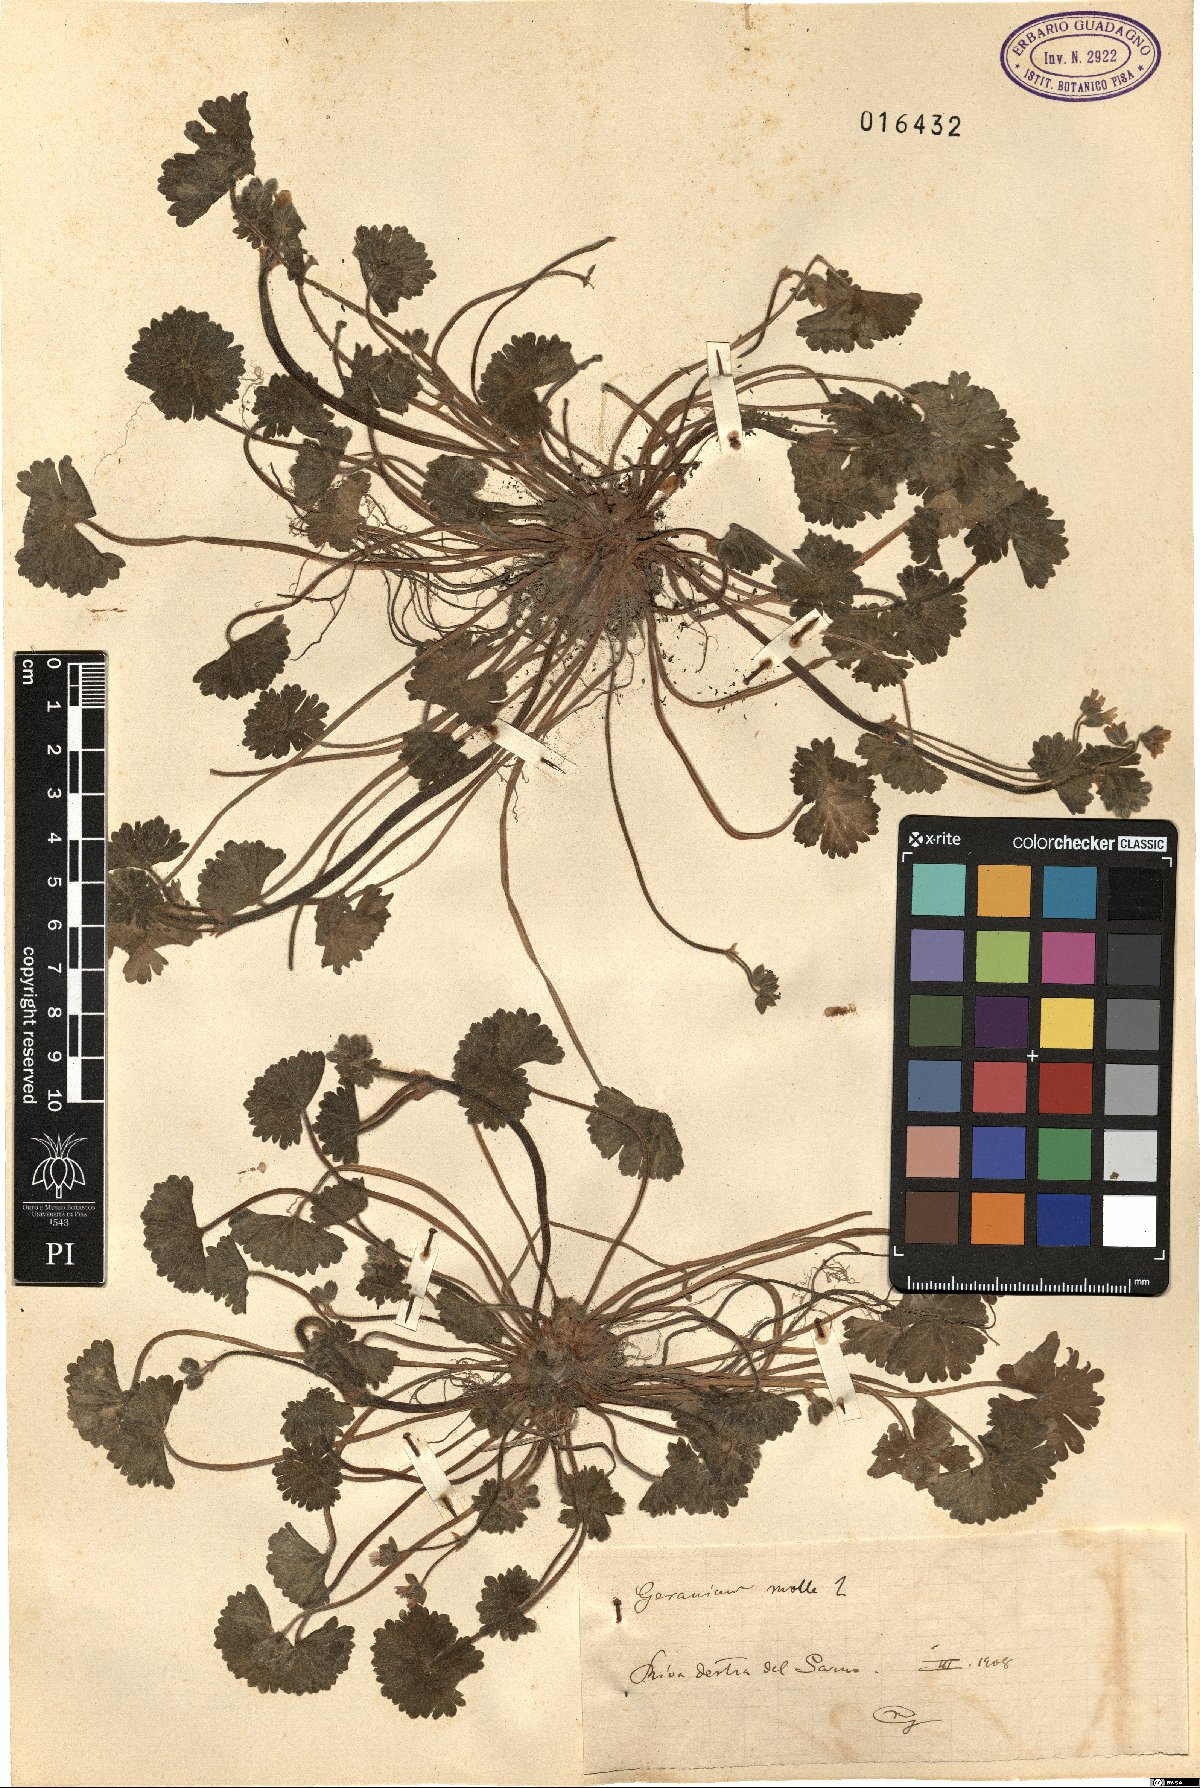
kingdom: Plantae
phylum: Tracheophyta
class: Magnoliopsida
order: Geraniales
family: Geraniaceae
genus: Geranium
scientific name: Geranium molle
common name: Dove's-foot crane's-bill
